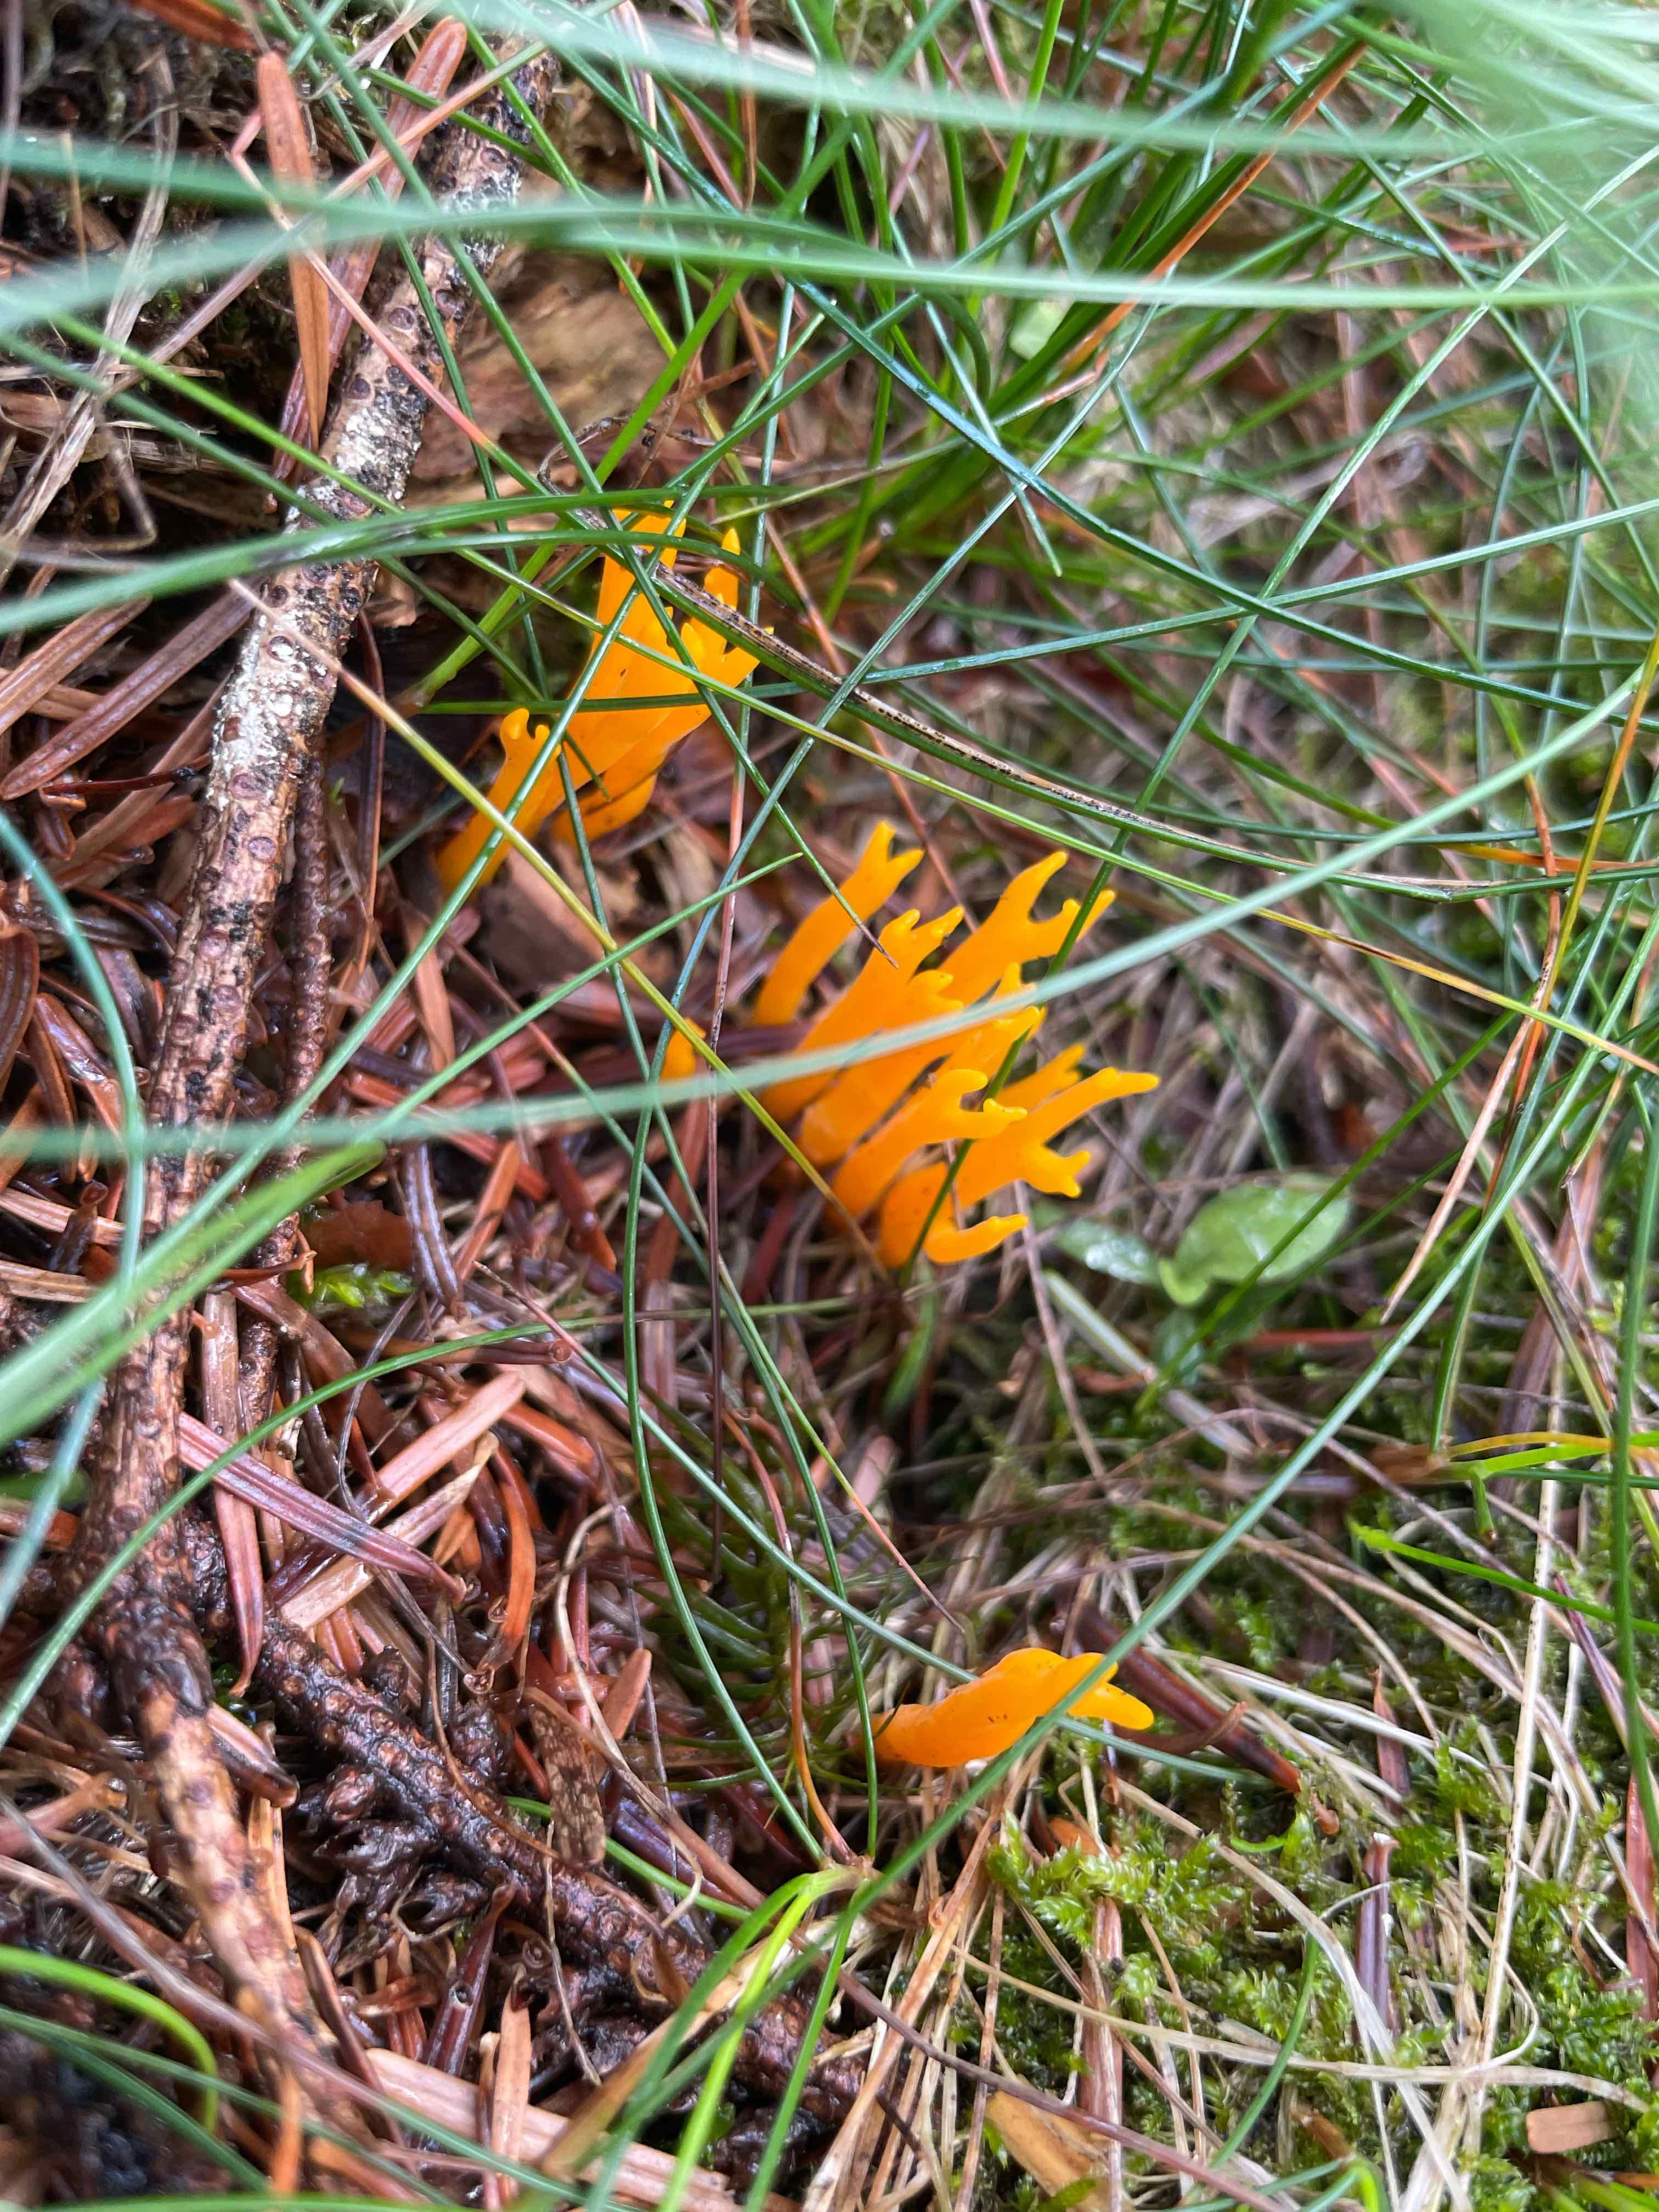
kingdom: Fungi
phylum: Basidiomycota
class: Dacrymycetes
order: Dacrymycetales
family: Dacrymycetaceae
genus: Calocera
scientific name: Calocera viscosa
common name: almindelig guldgaffel
